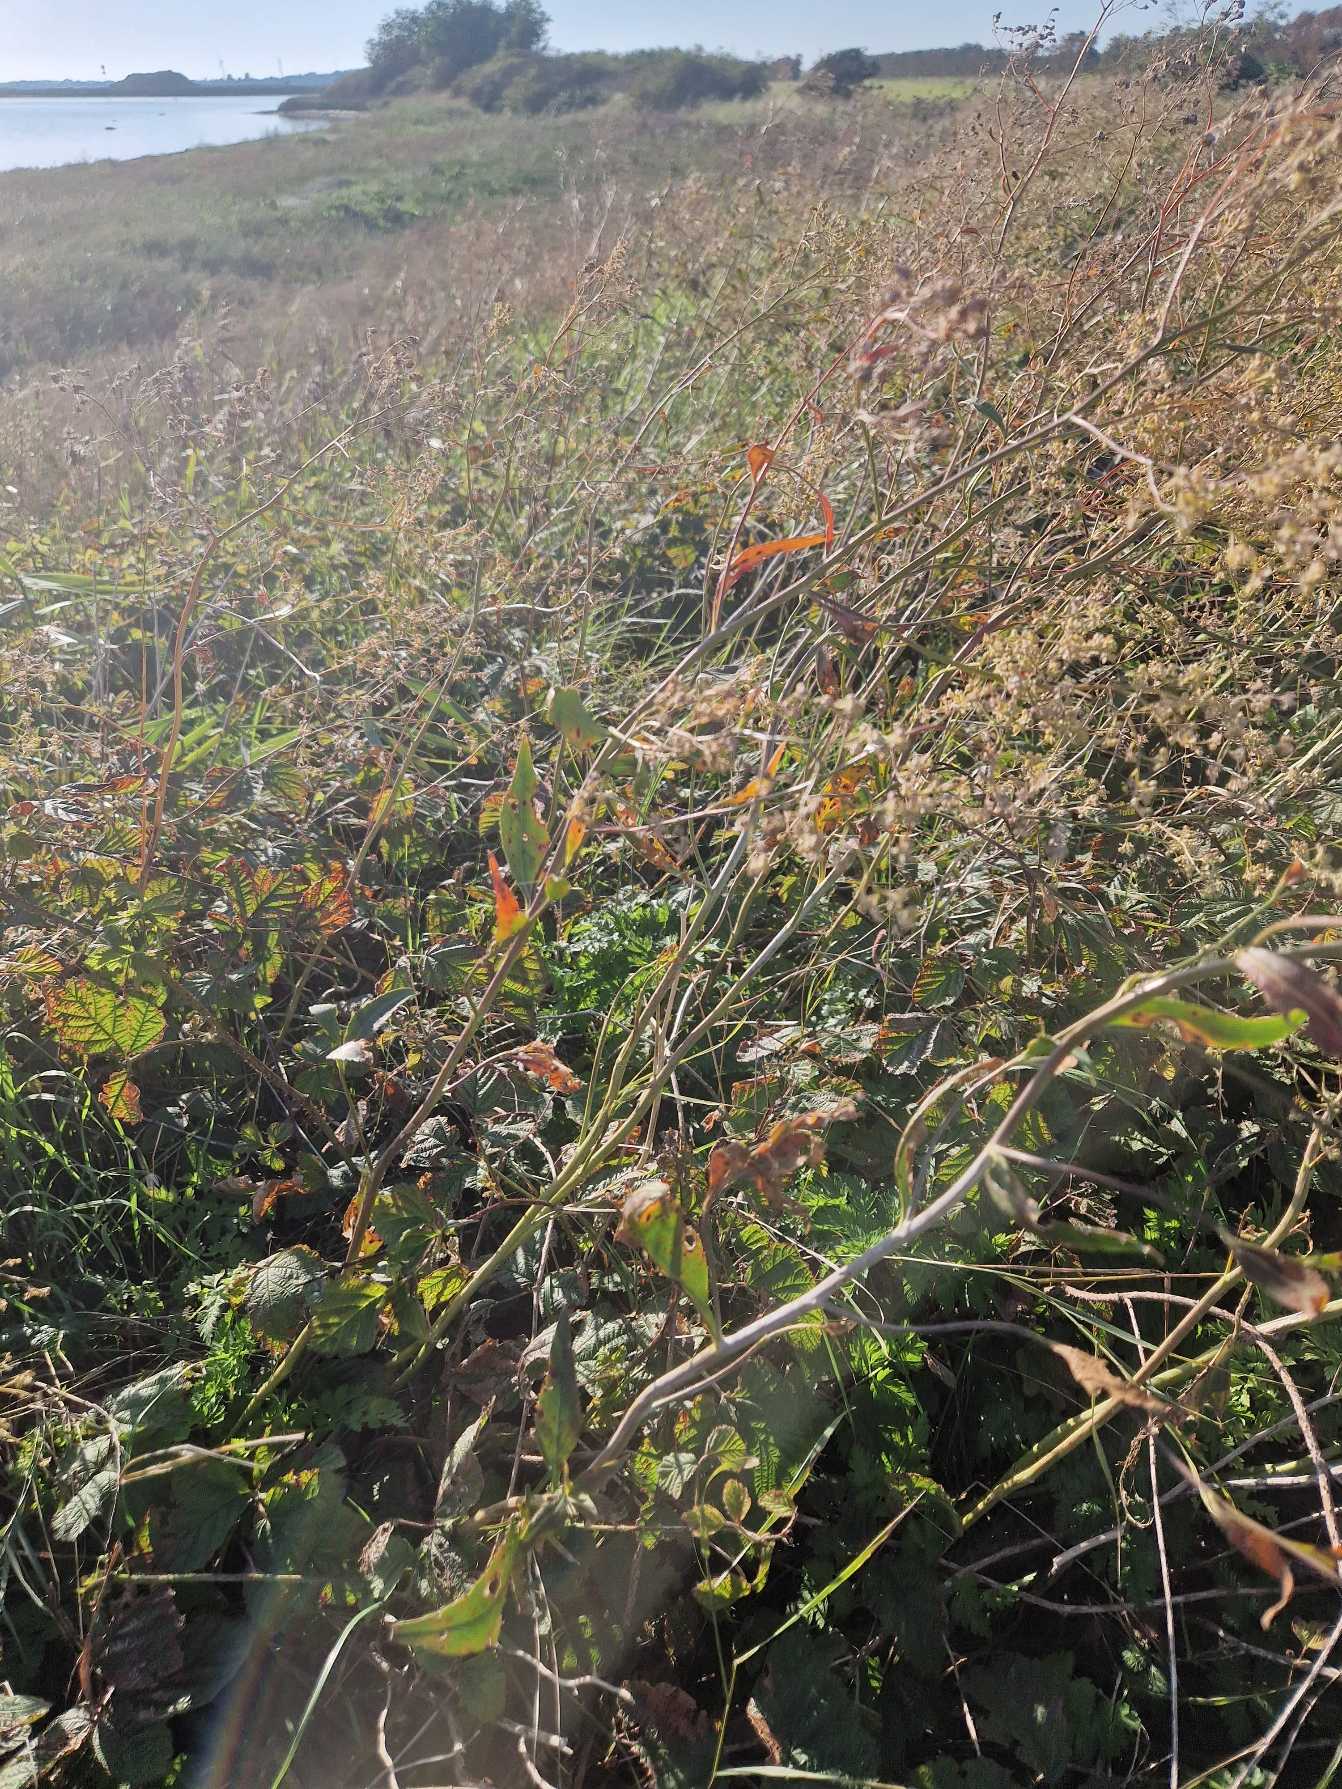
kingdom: Plantae
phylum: Tracheophyta
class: Magnoliopsida
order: Brassicales
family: Brassicaceae
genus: Lepidium
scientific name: Lepidium latifolium
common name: Strand-karse
